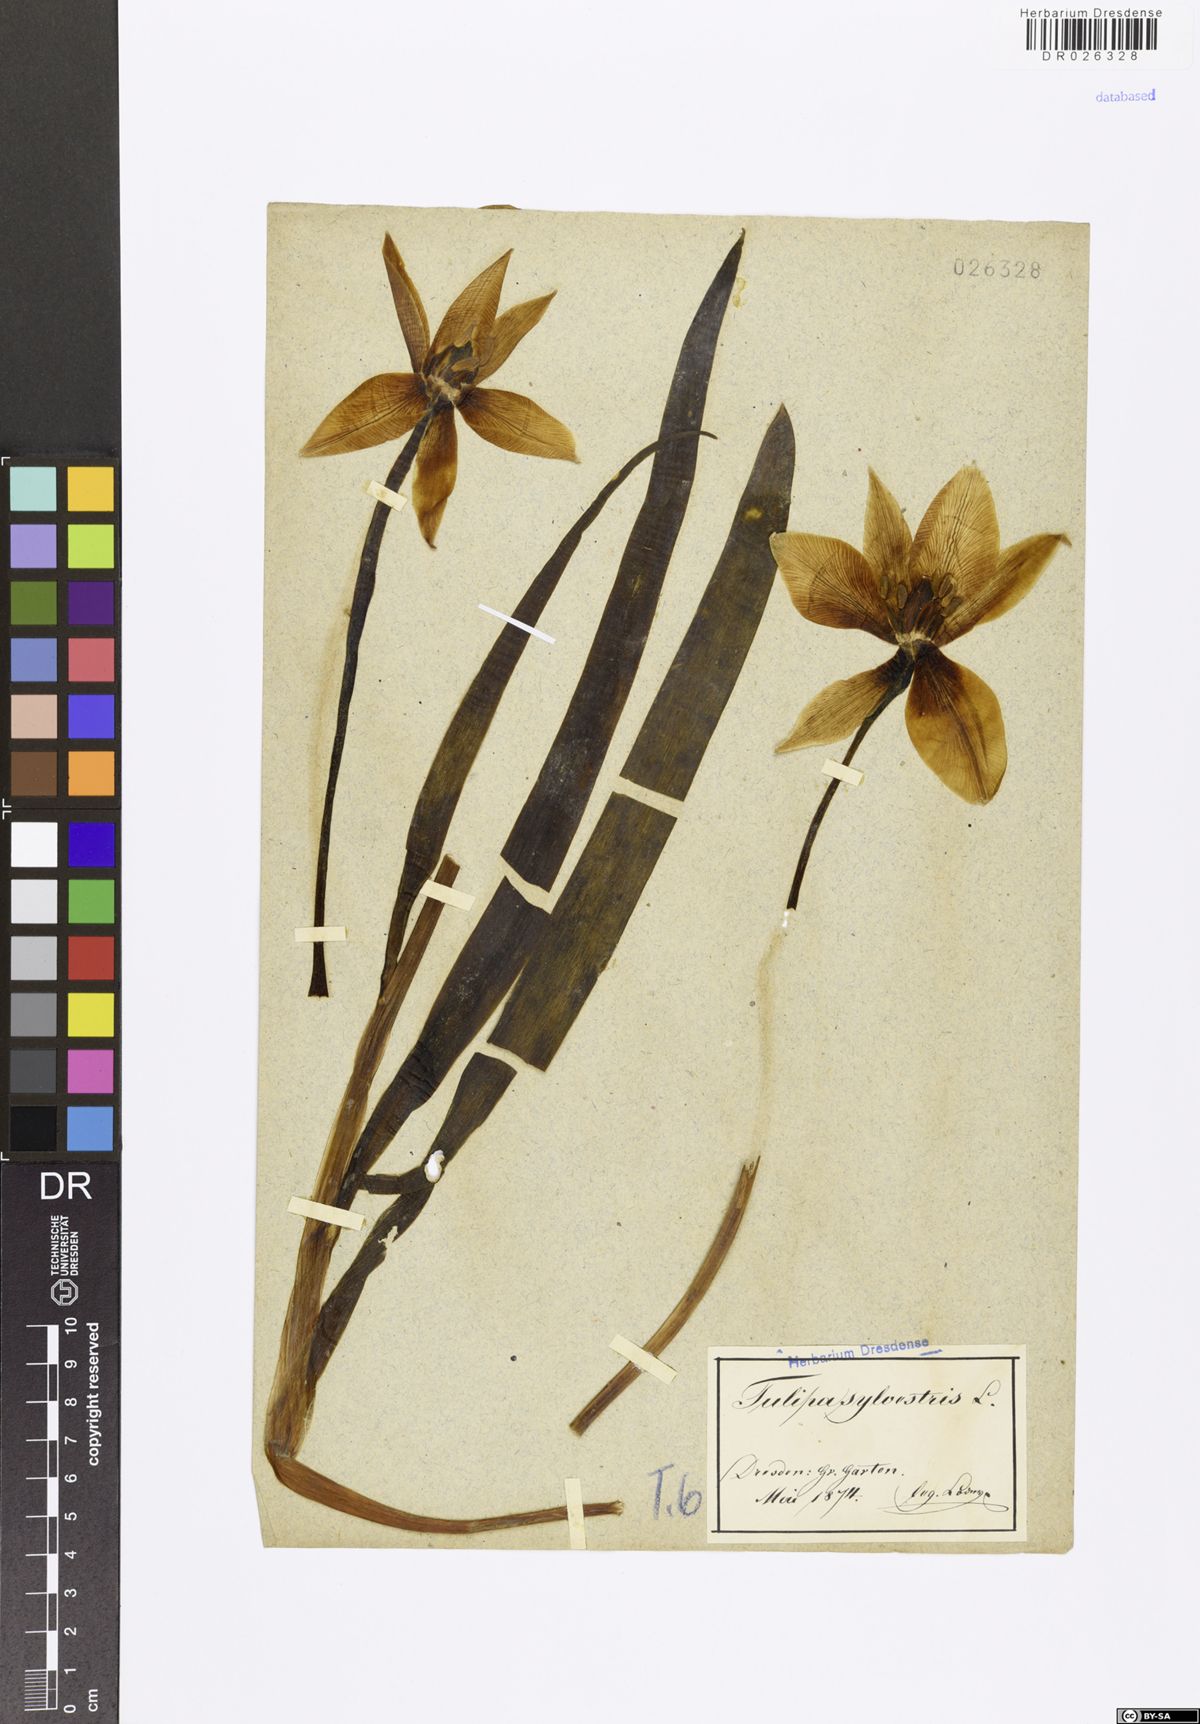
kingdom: Plantae
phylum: Tracheophyta
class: Liliopsida
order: Liliales
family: Liliaceae
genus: Tulipa
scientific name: Tulipa sylvestris
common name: Wild tulip
